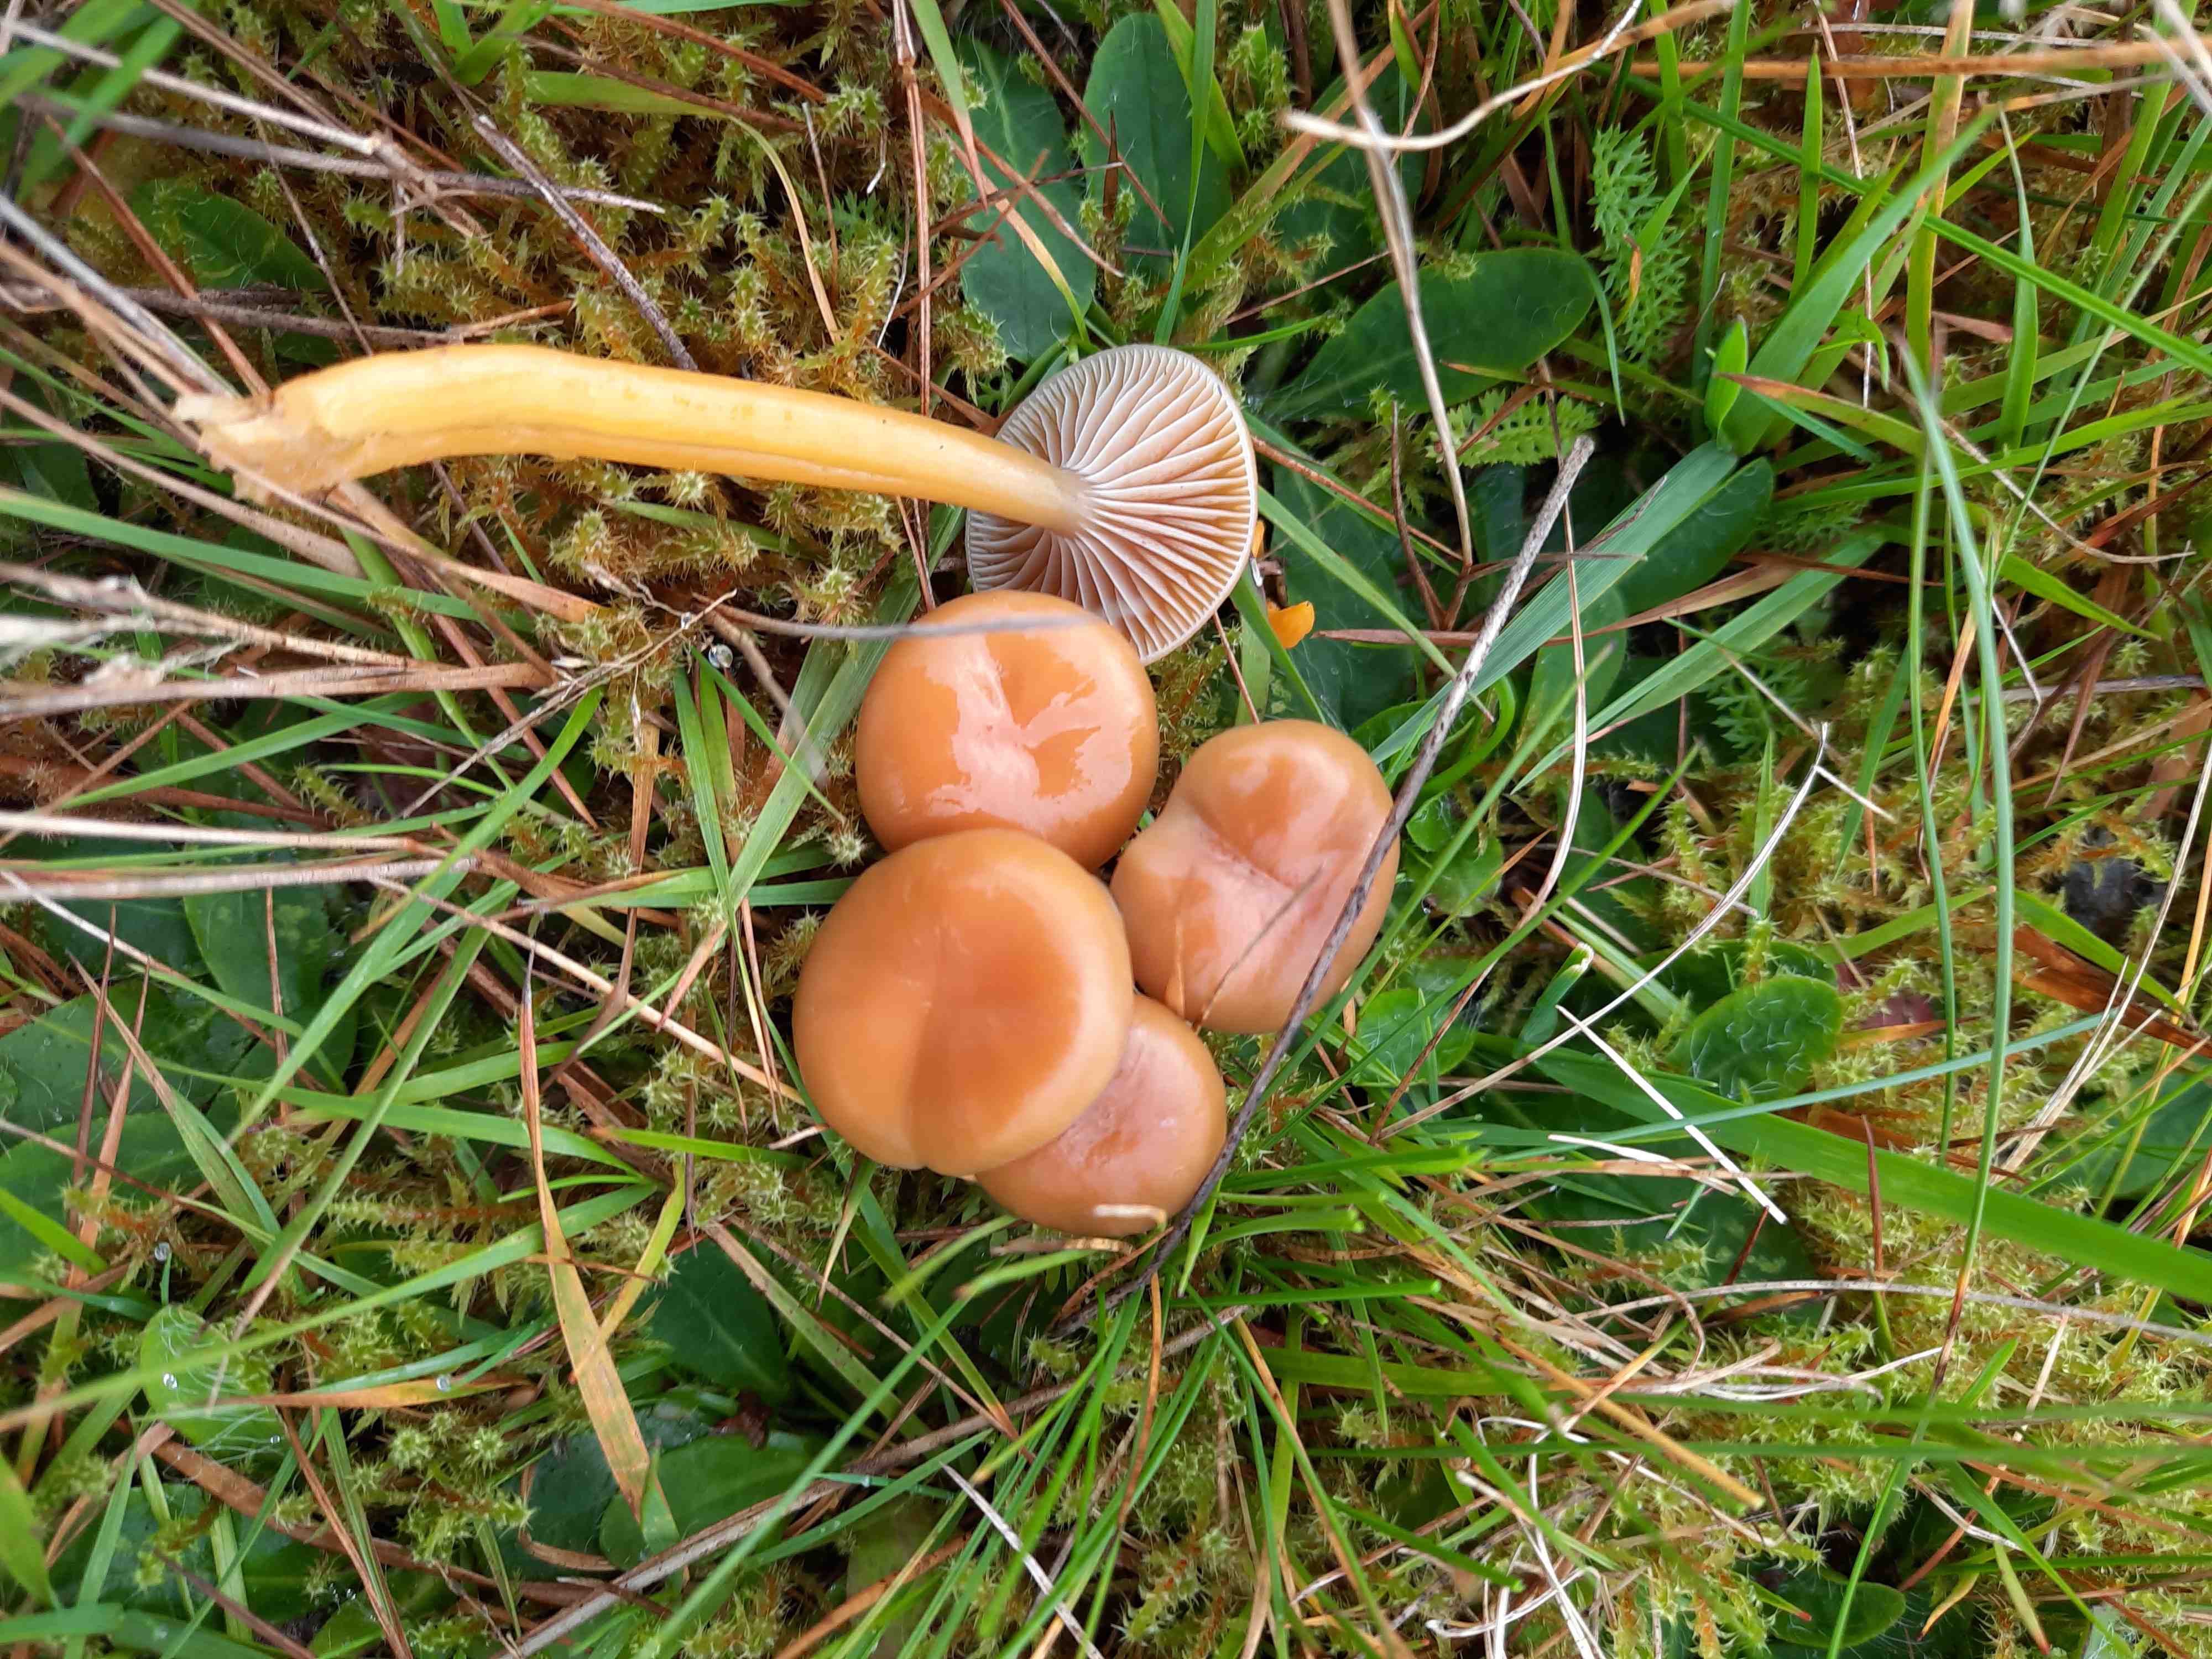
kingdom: Fungi
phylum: Basidiomycota
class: Agaricomycetes
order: Agaricales
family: Hygrophoraceae
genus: Gliophorus
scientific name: Gliophorus laetus
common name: brusk-vokshat
